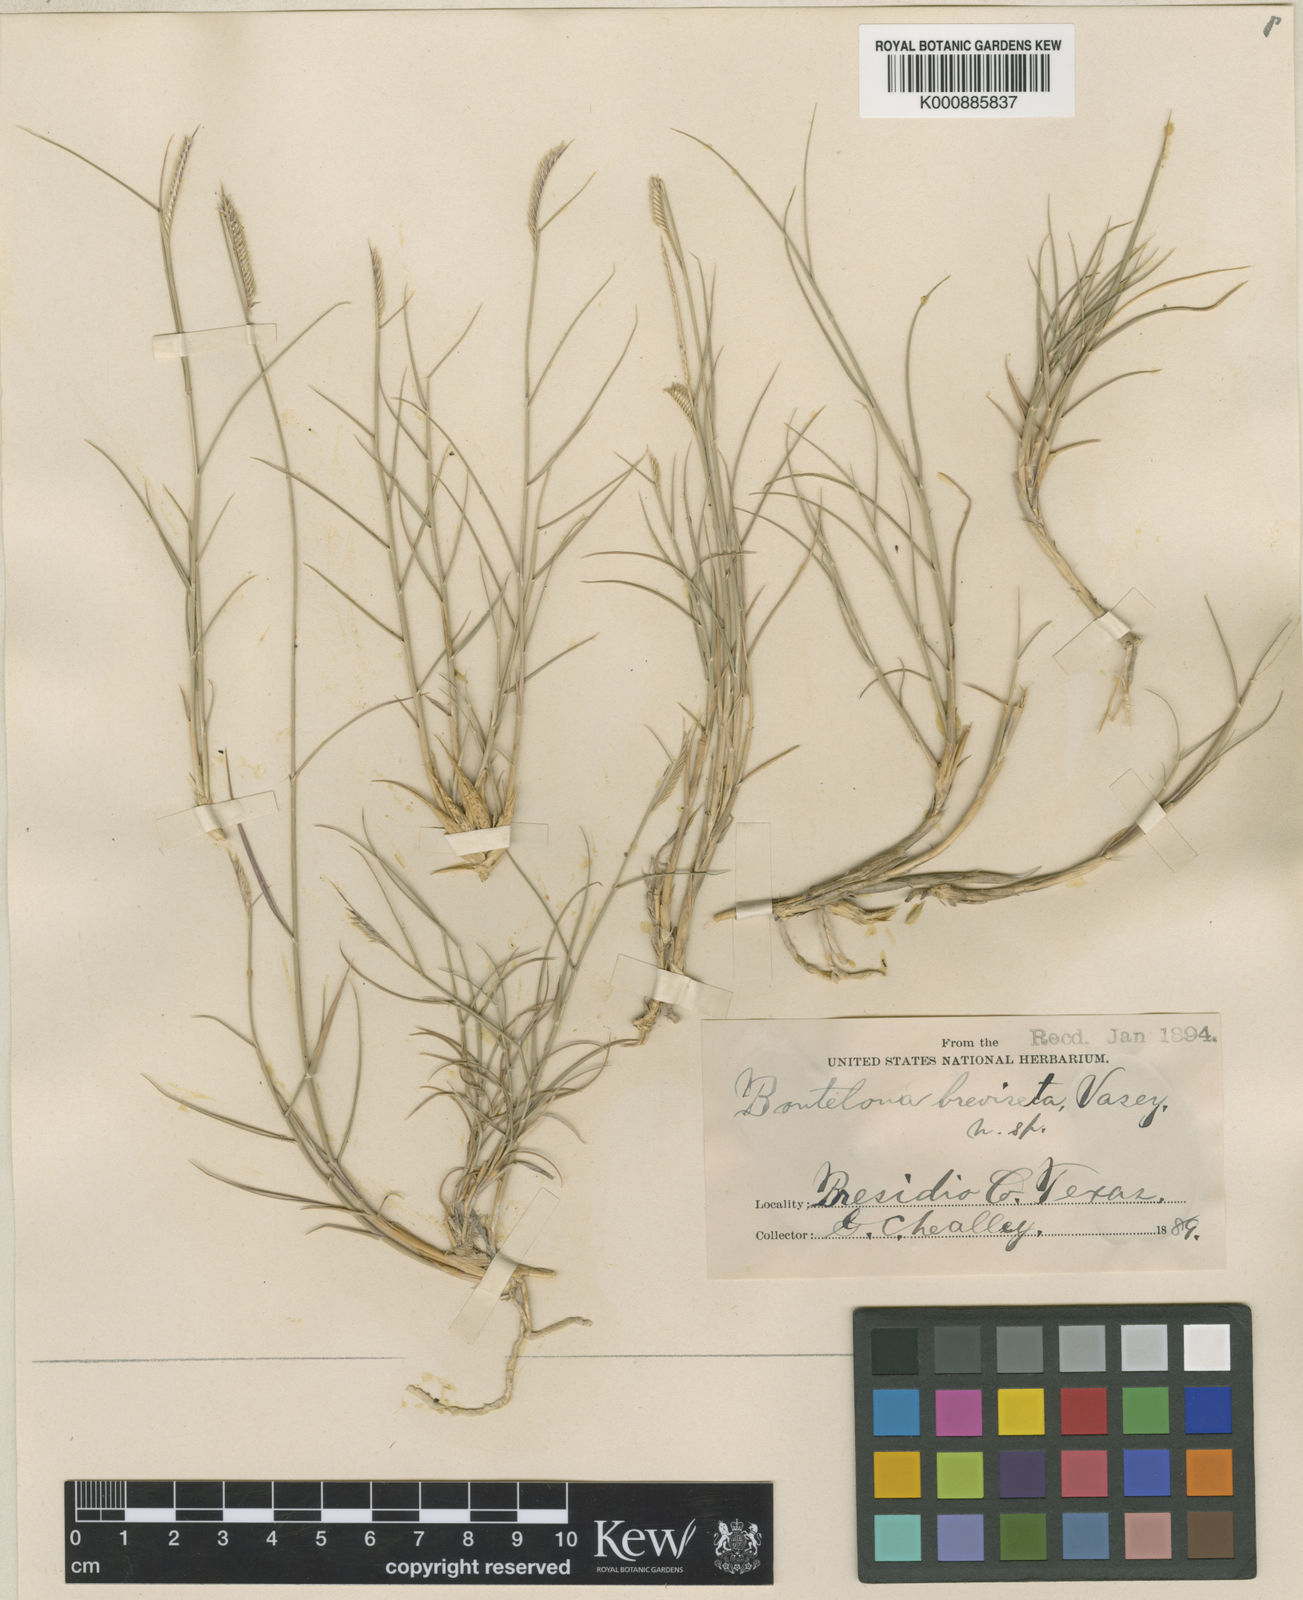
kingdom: Plantae
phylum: Tracheophyta
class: Liliopsida
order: Poales
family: Poaceae
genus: Bouteloua
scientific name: Bouteloua breviseta
